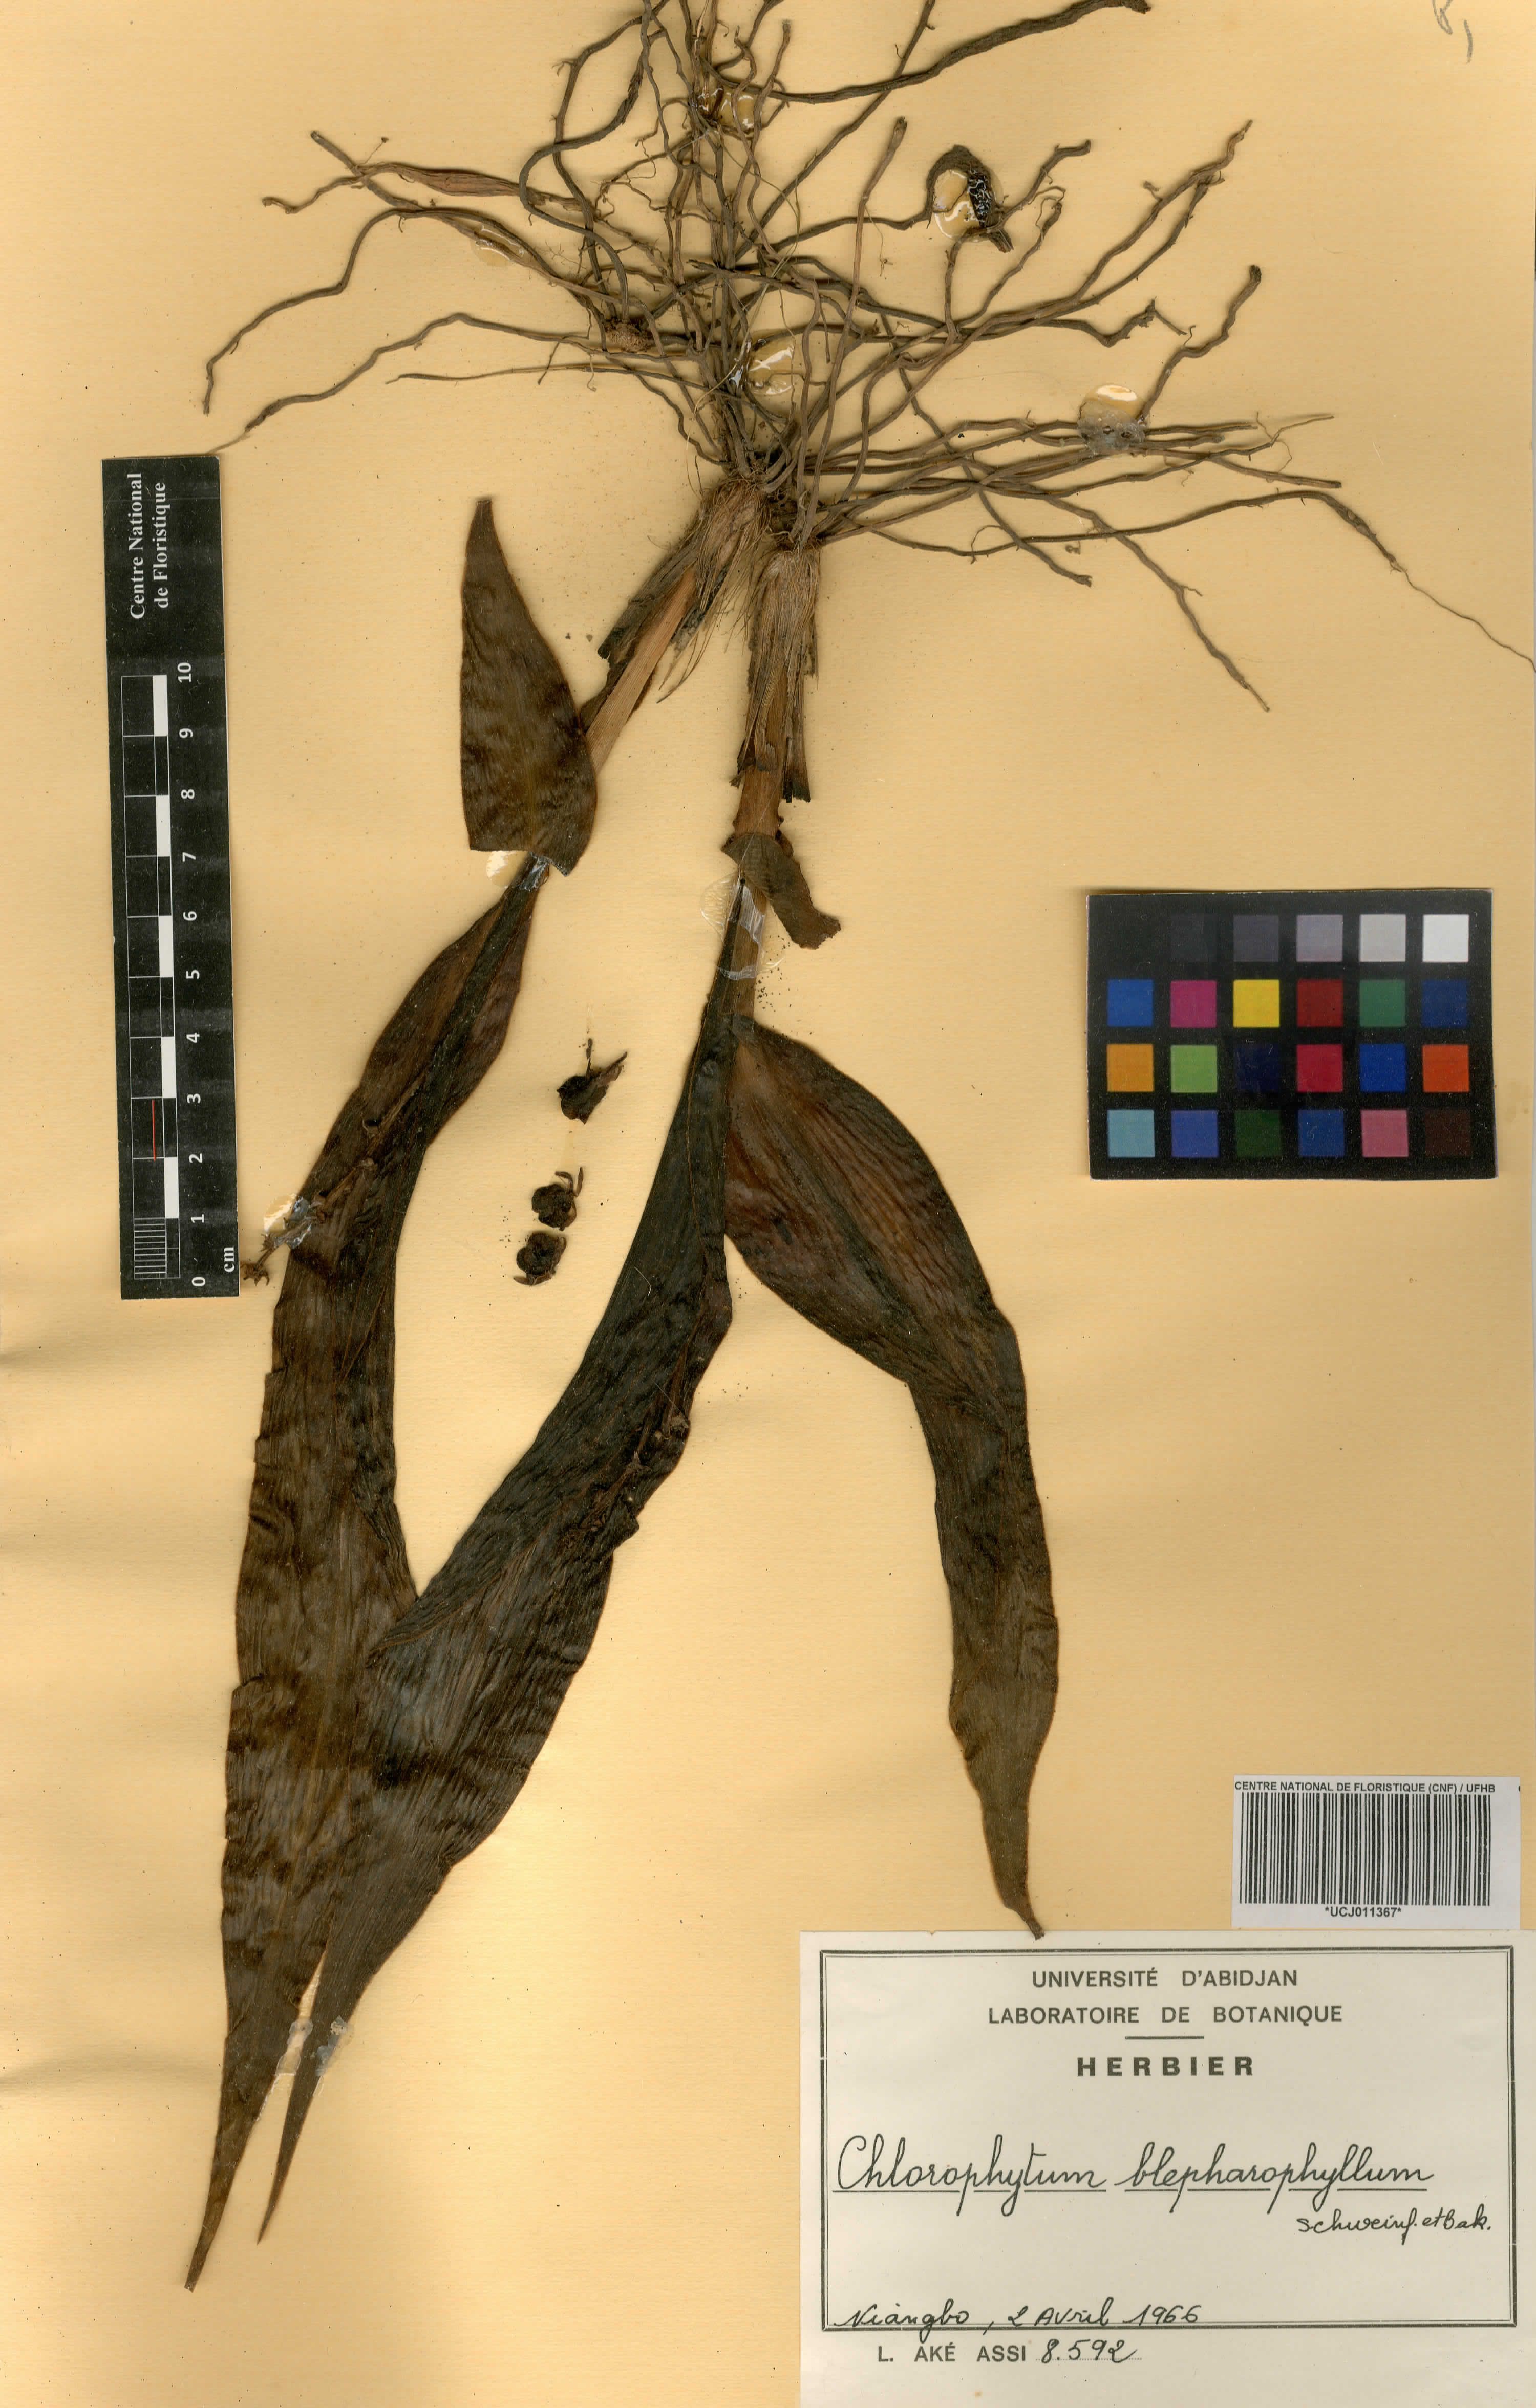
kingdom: Plantae
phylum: Tracheophyta
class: Liliopsida
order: Asparagales
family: Asparagaceae
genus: Chlorophytum
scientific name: Chlorophytum blepharophyllum
